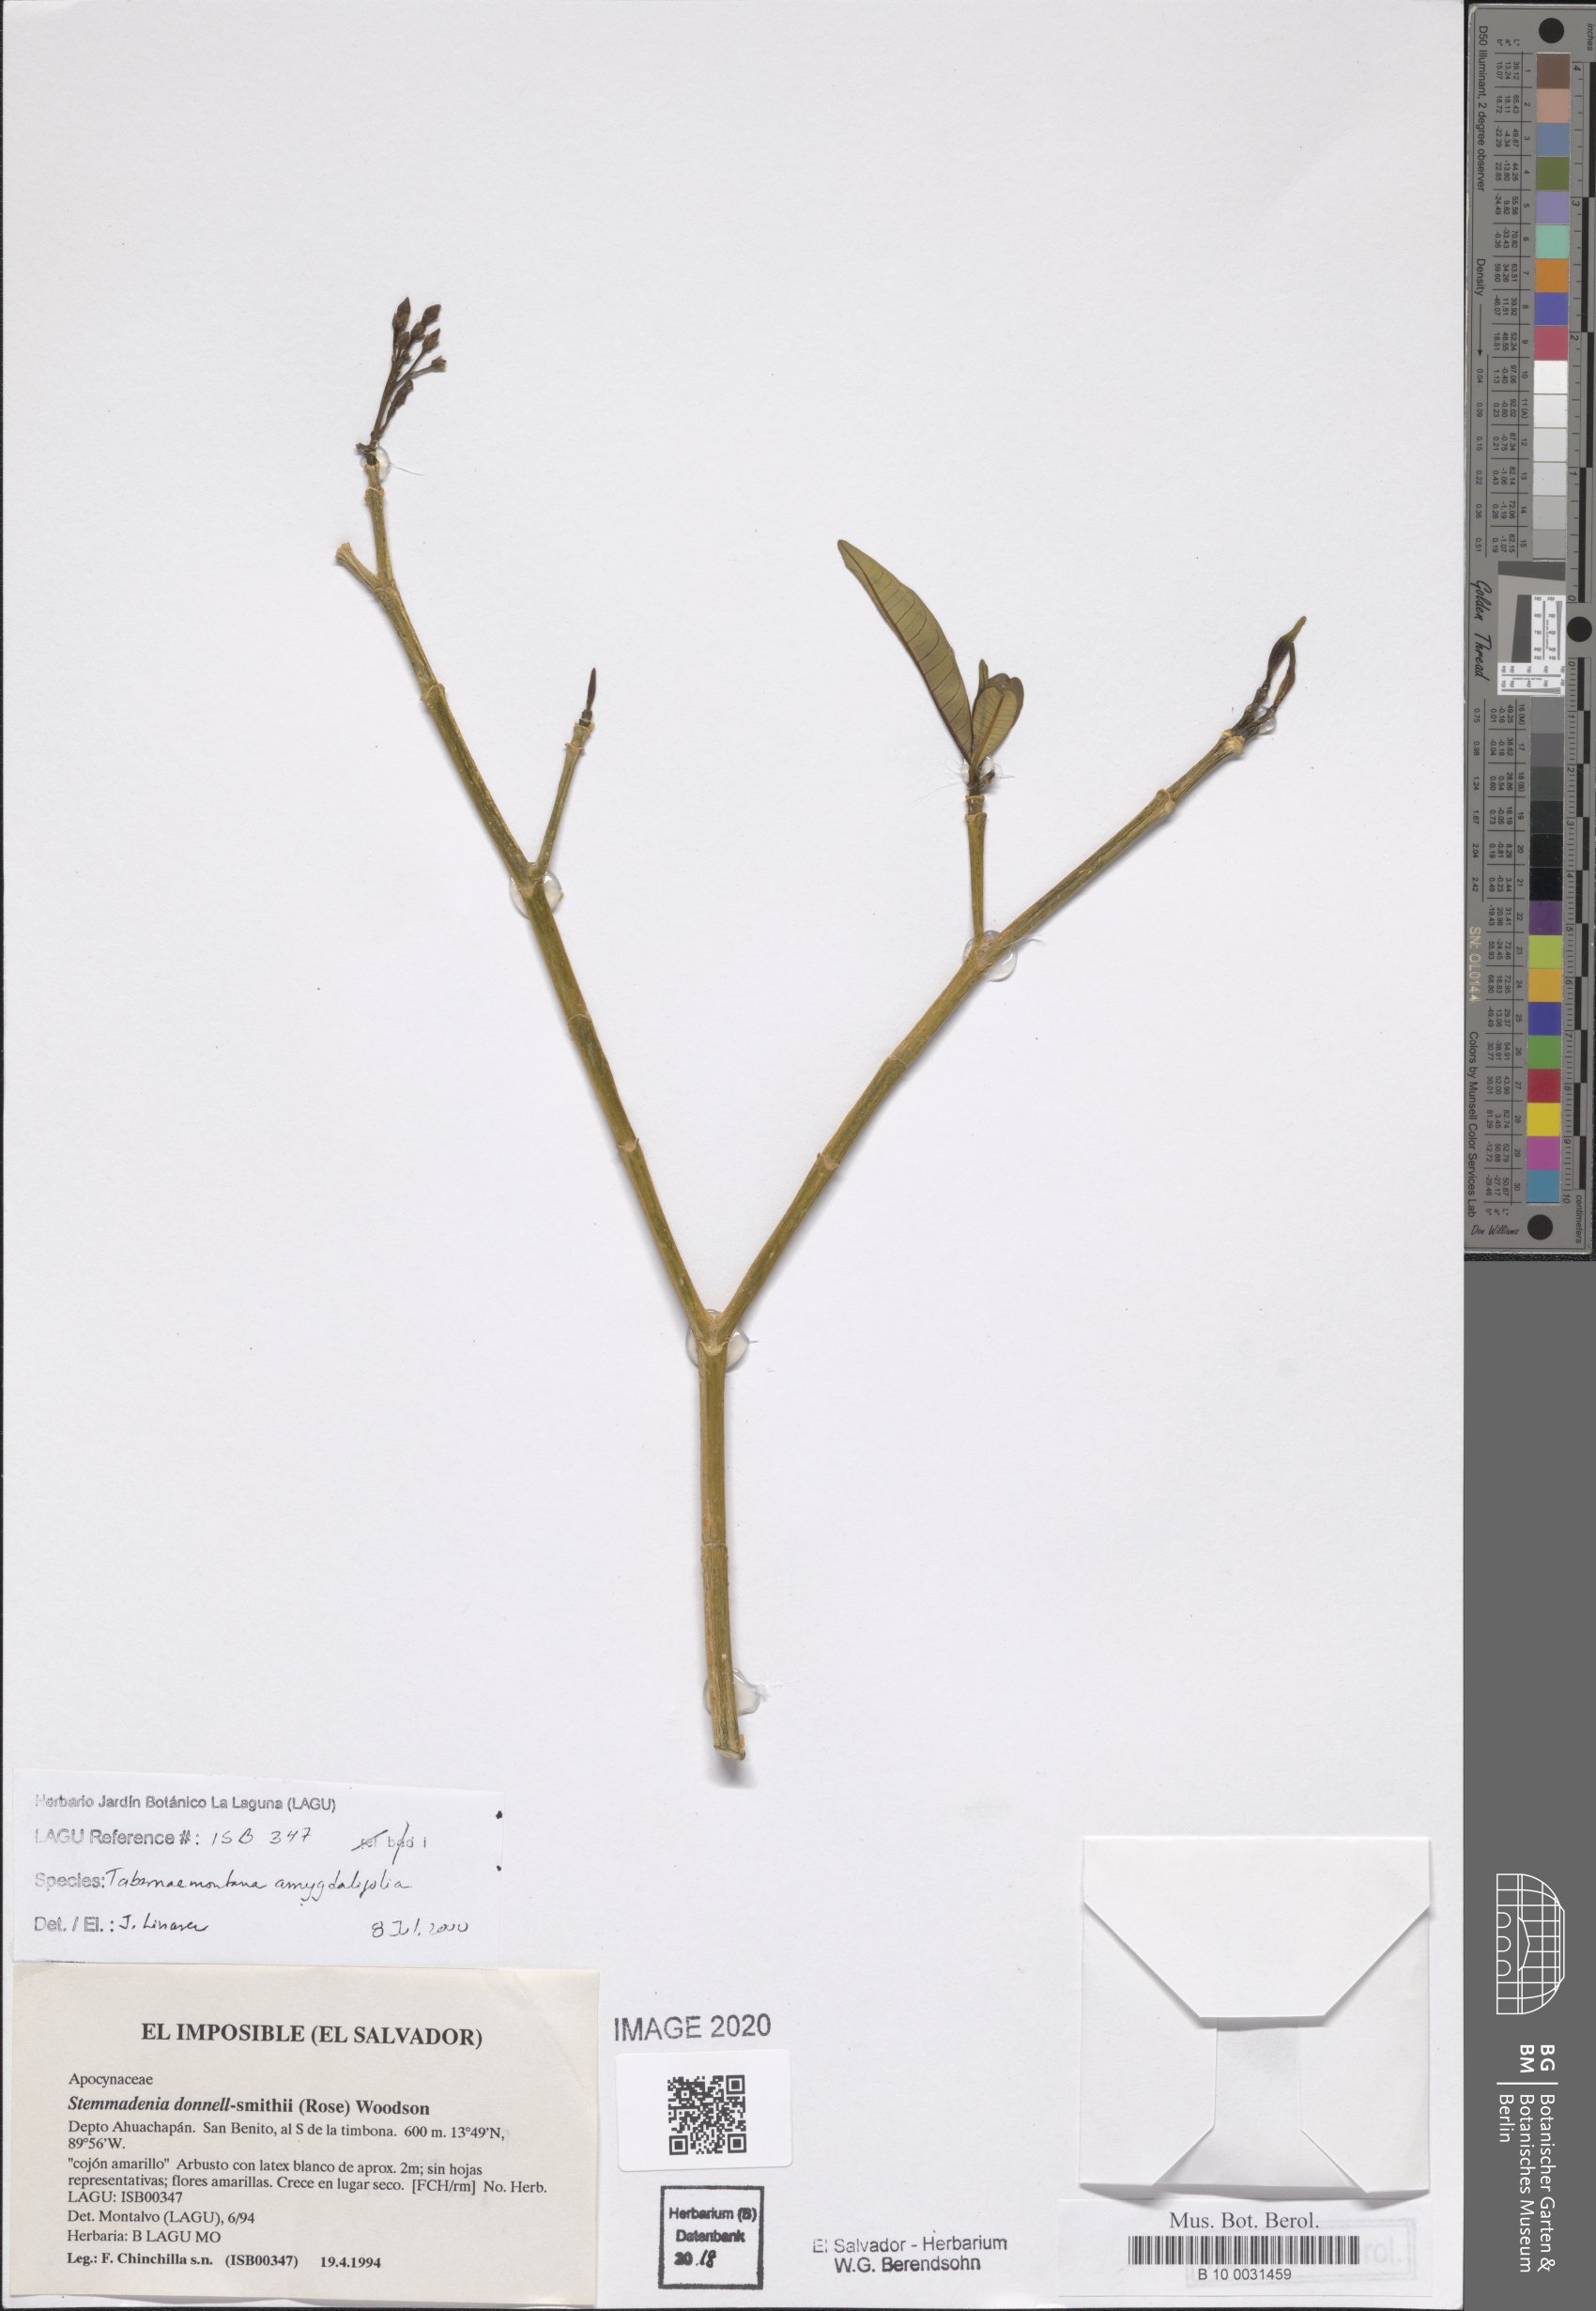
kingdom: Plantae
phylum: Tracheophyta
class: Magnoliopsida
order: Gentianales
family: Apocynaceae
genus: Tabernaemontana
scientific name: Tabernaemontana amygdalifolia
